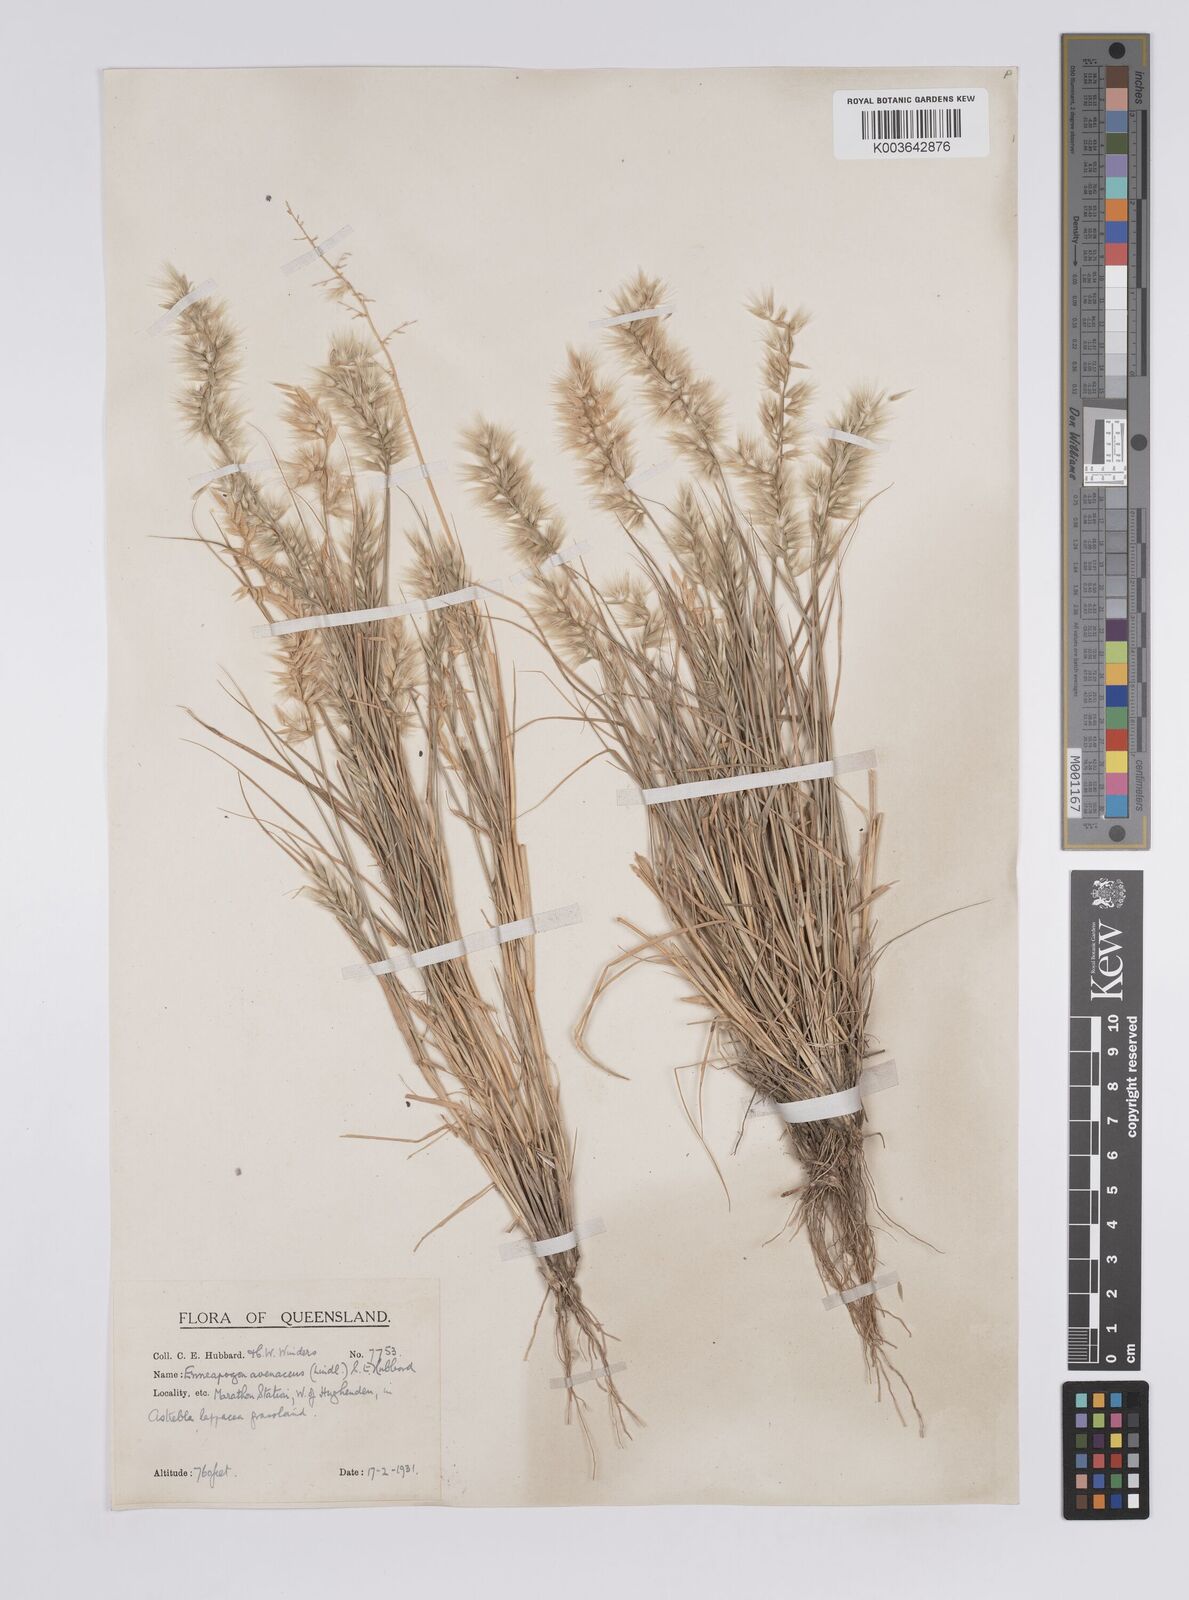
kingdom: Plantae
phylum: Tracheophyta
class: Liliopsida
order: Poales
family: Poaceae
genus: Enneapogon
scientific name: Enneapogon avenaceus
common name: Hairy oat grass
